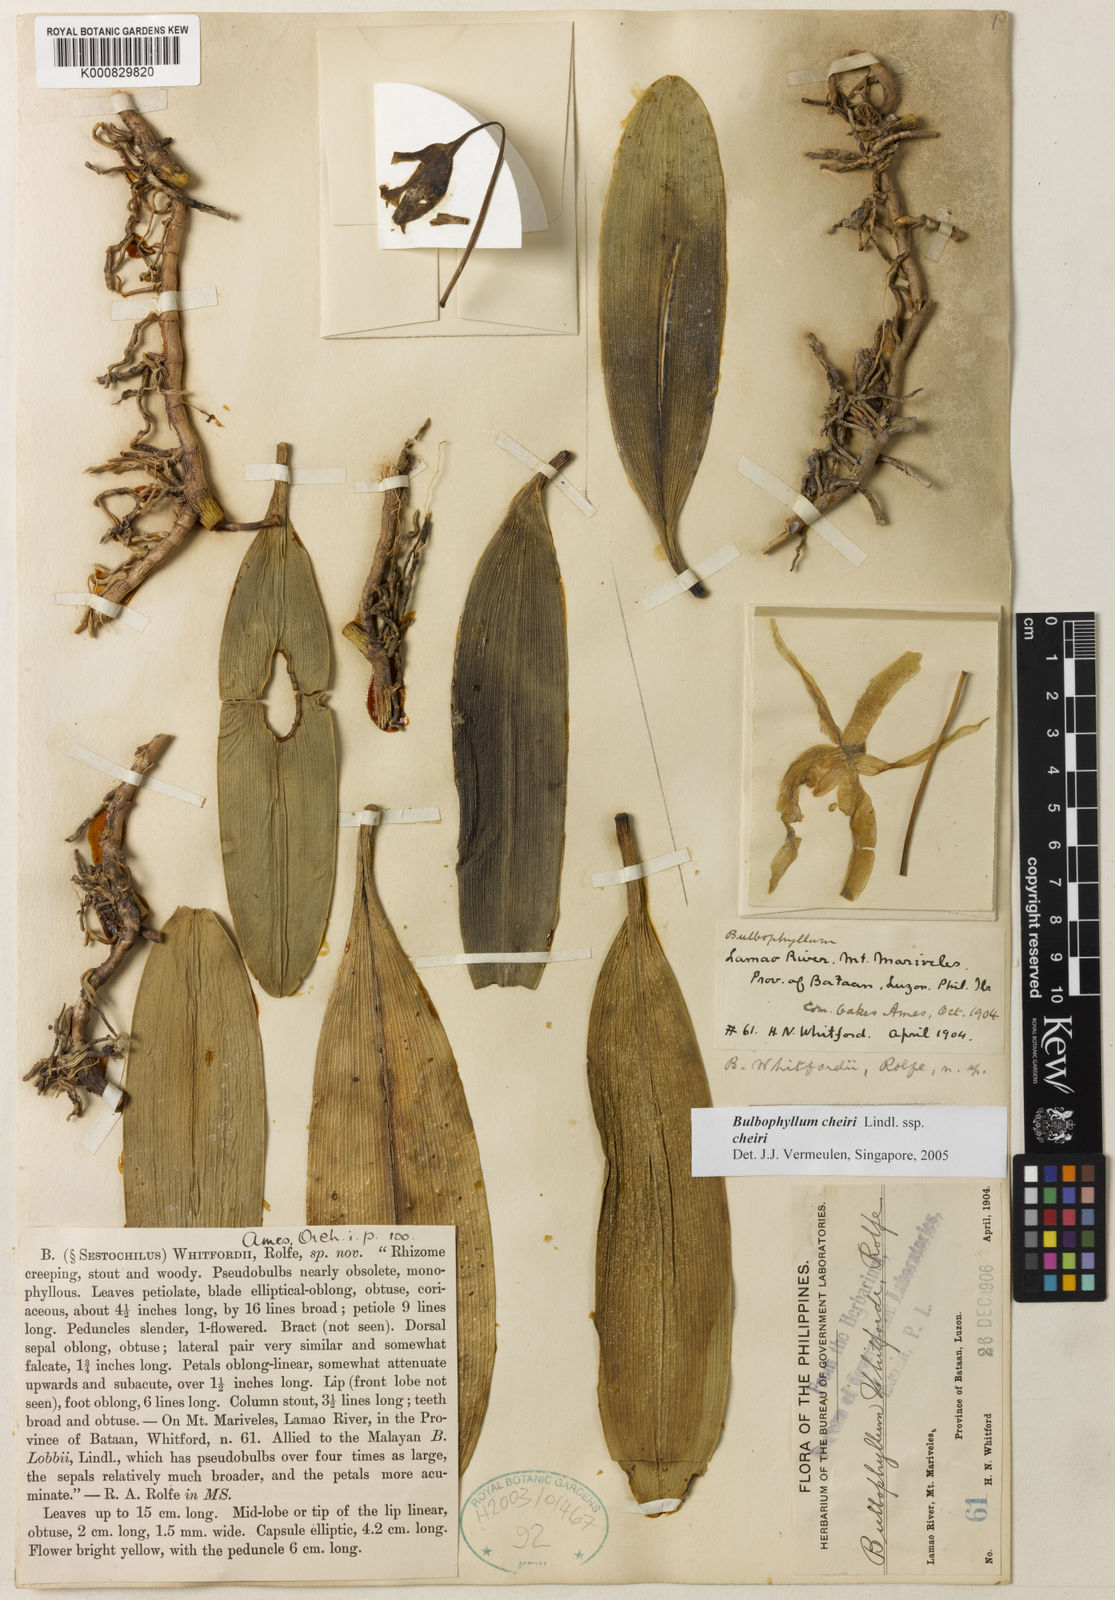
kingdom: Plantae
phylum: Tracheophyta
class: Liliopsida
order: Asparagales
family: Orchidaceae
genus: Bulbophyllum
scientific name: Bulbophyllum cheiri
